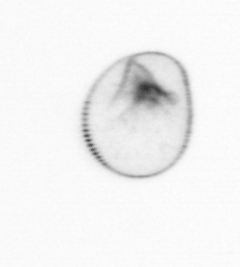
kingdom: Chromista
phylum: Myzozoa
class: Dinophyceae
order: Noctilucales
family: Noctilucaceae
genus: Noctiluca
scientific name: Noctiluca scintillans
